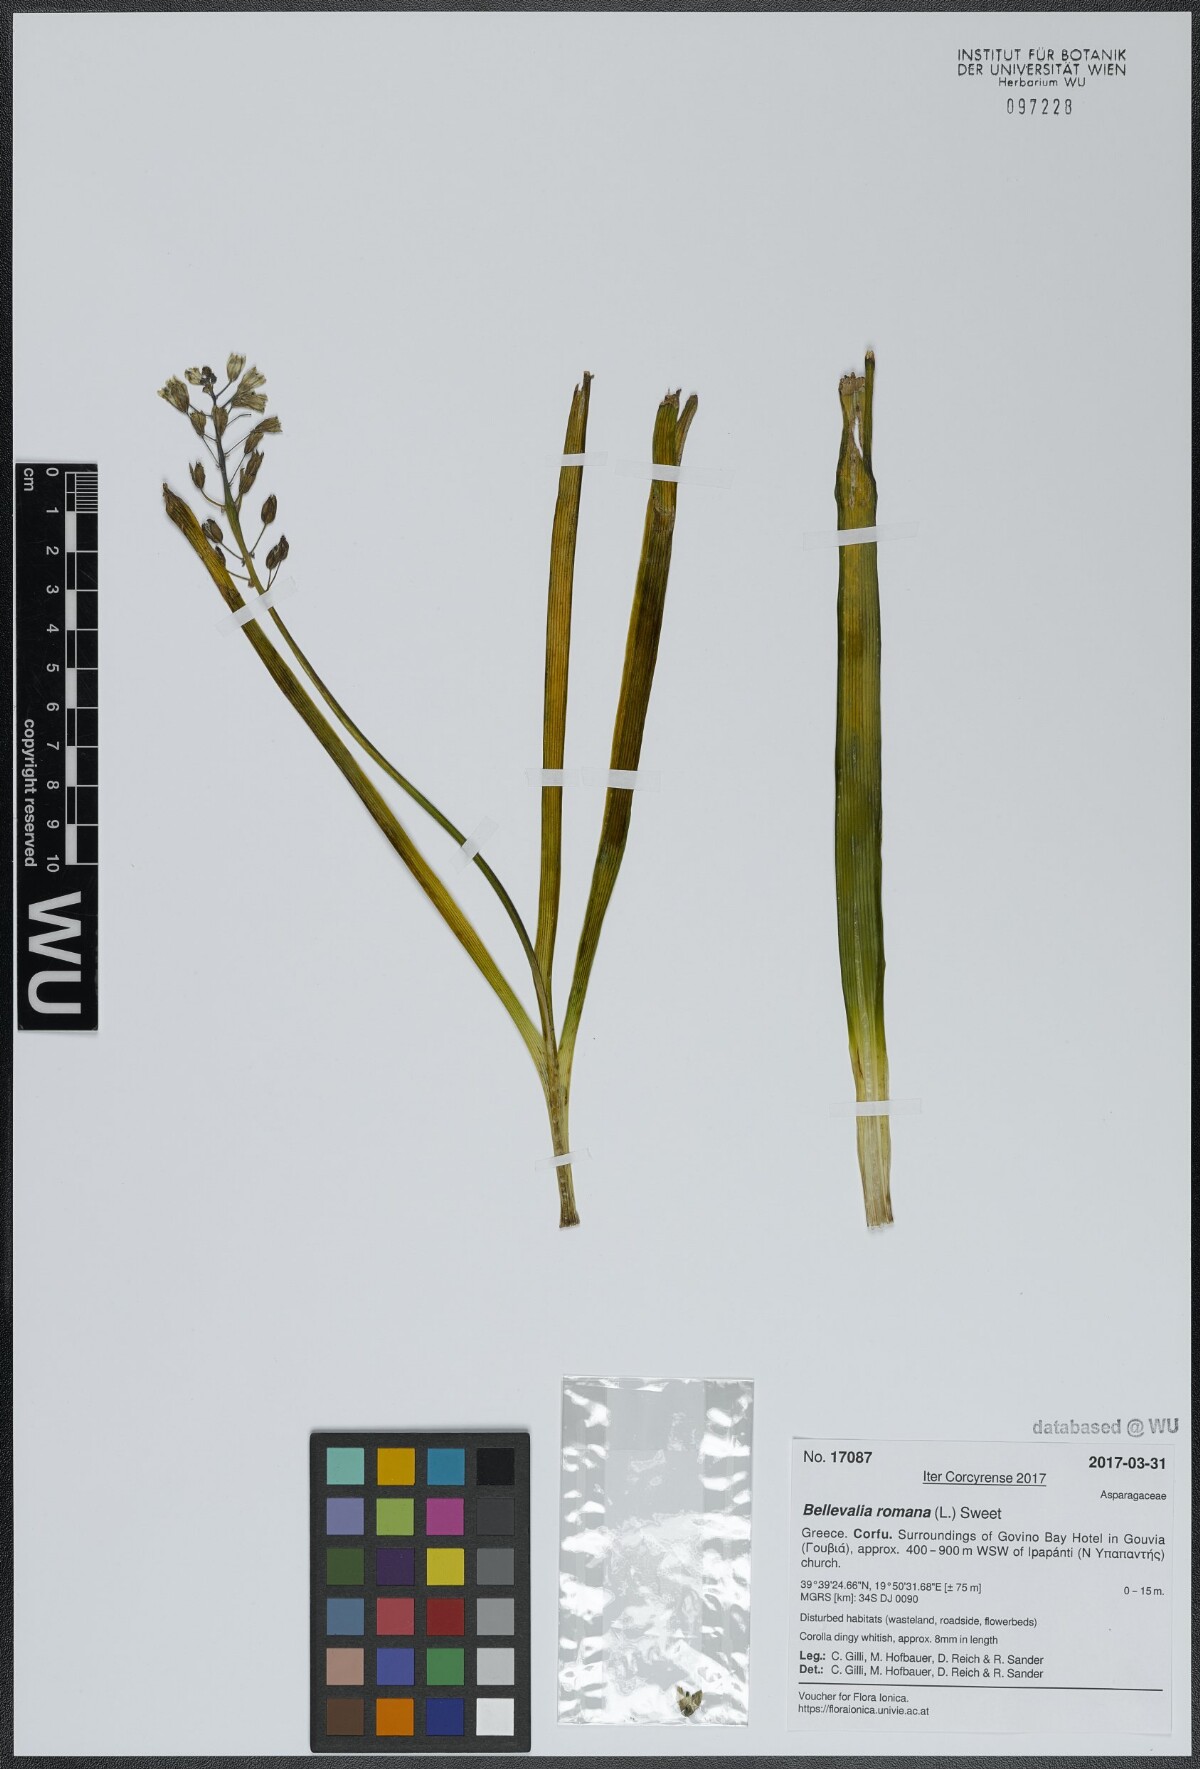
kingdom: Plantae
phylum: Tracheophyta
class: Liliopsida
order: Asparagales
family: Asparagaceae
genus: Bellevalia
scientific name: Bellevalia romana
